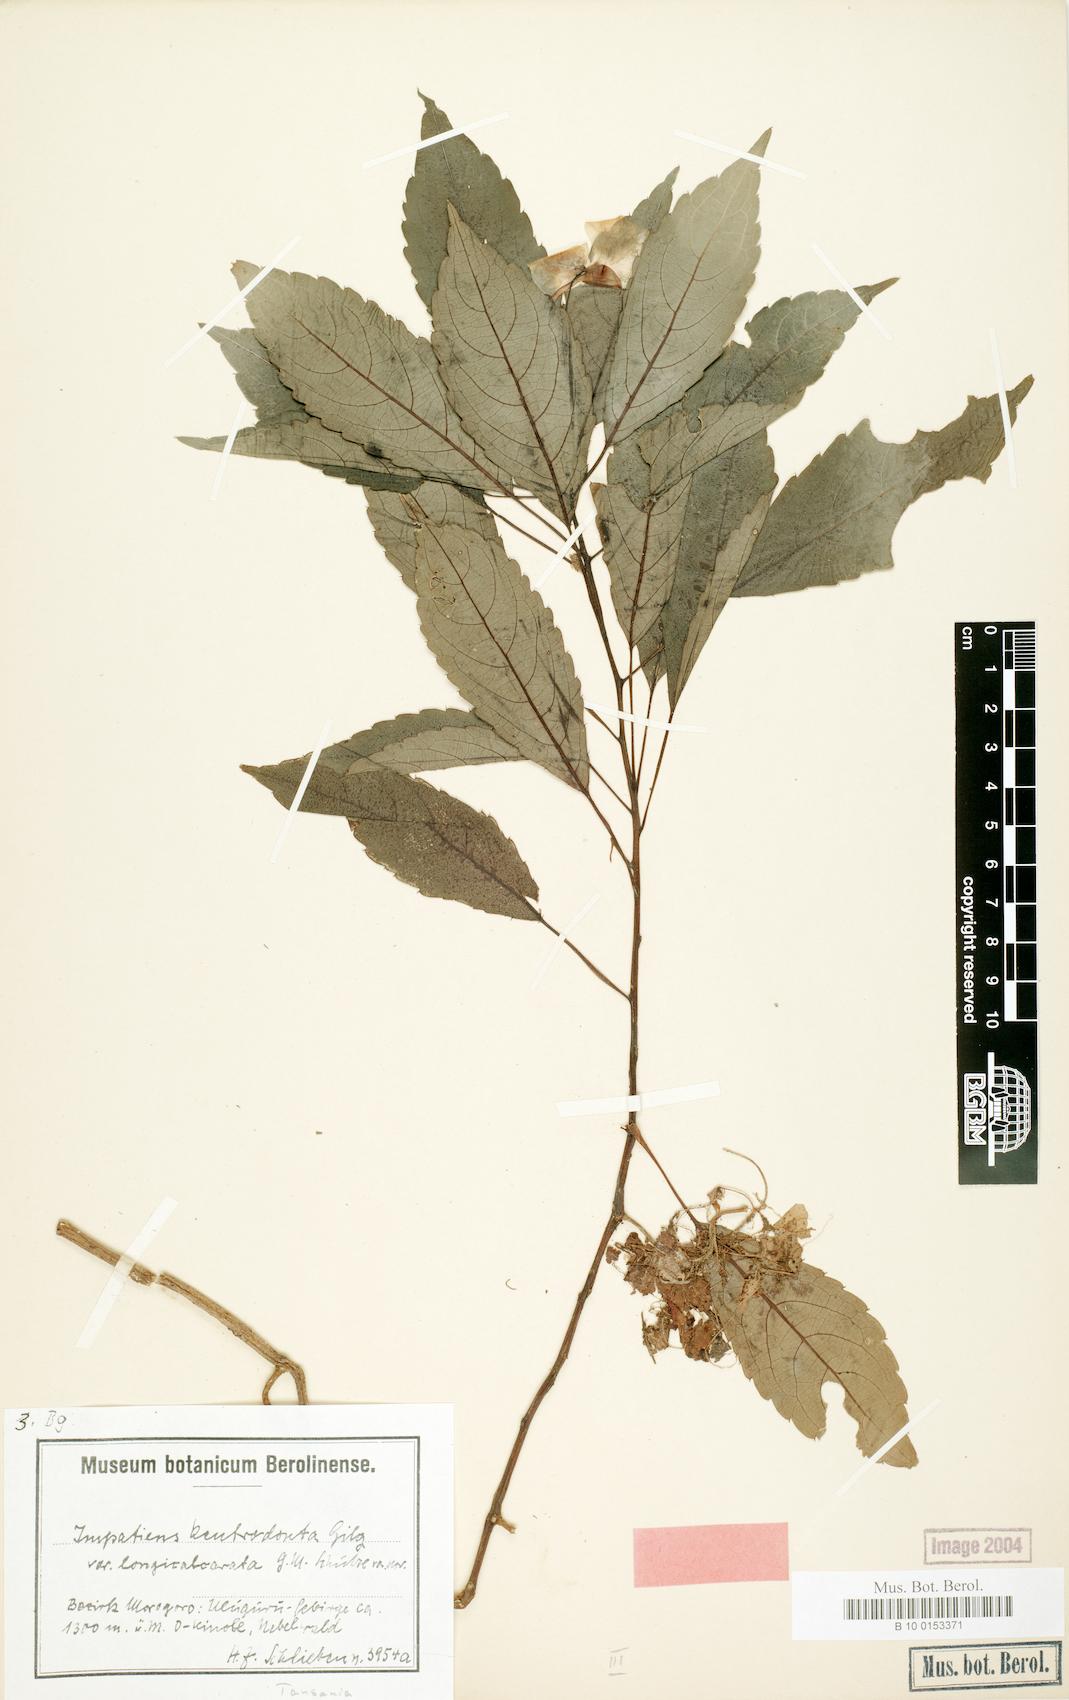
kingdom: Plantae
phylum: Tracheophyta
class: Magnoliopsida
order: Ericales
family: Balsaminaceae
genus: Impatiens
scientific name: Impatiens kentrodonta
